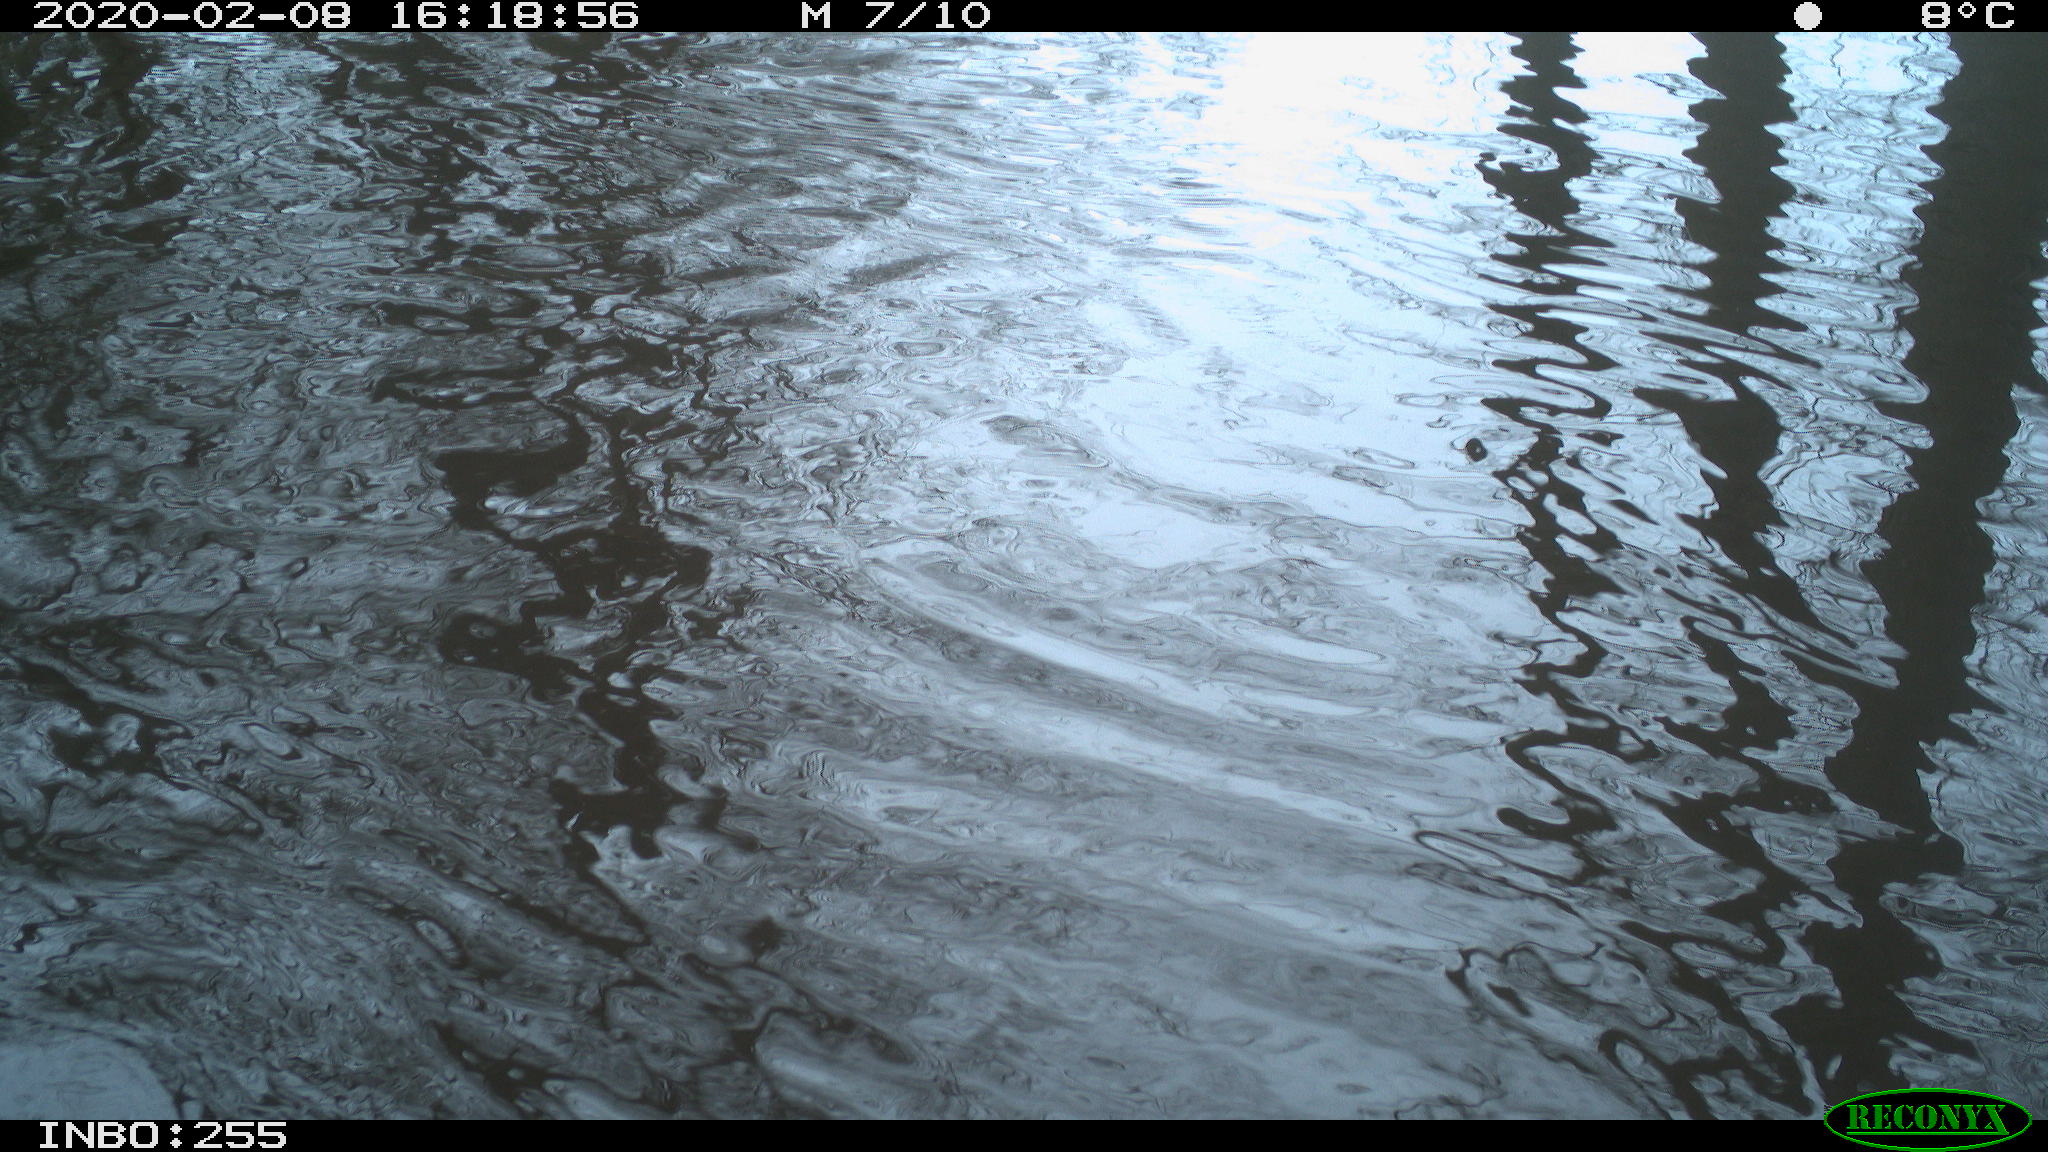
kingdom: Animalia
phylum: Chordata
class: Aves
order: Gruiformes
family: Rallidae
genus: Fulica
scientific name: Fulica atra
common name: Eurasian coot
